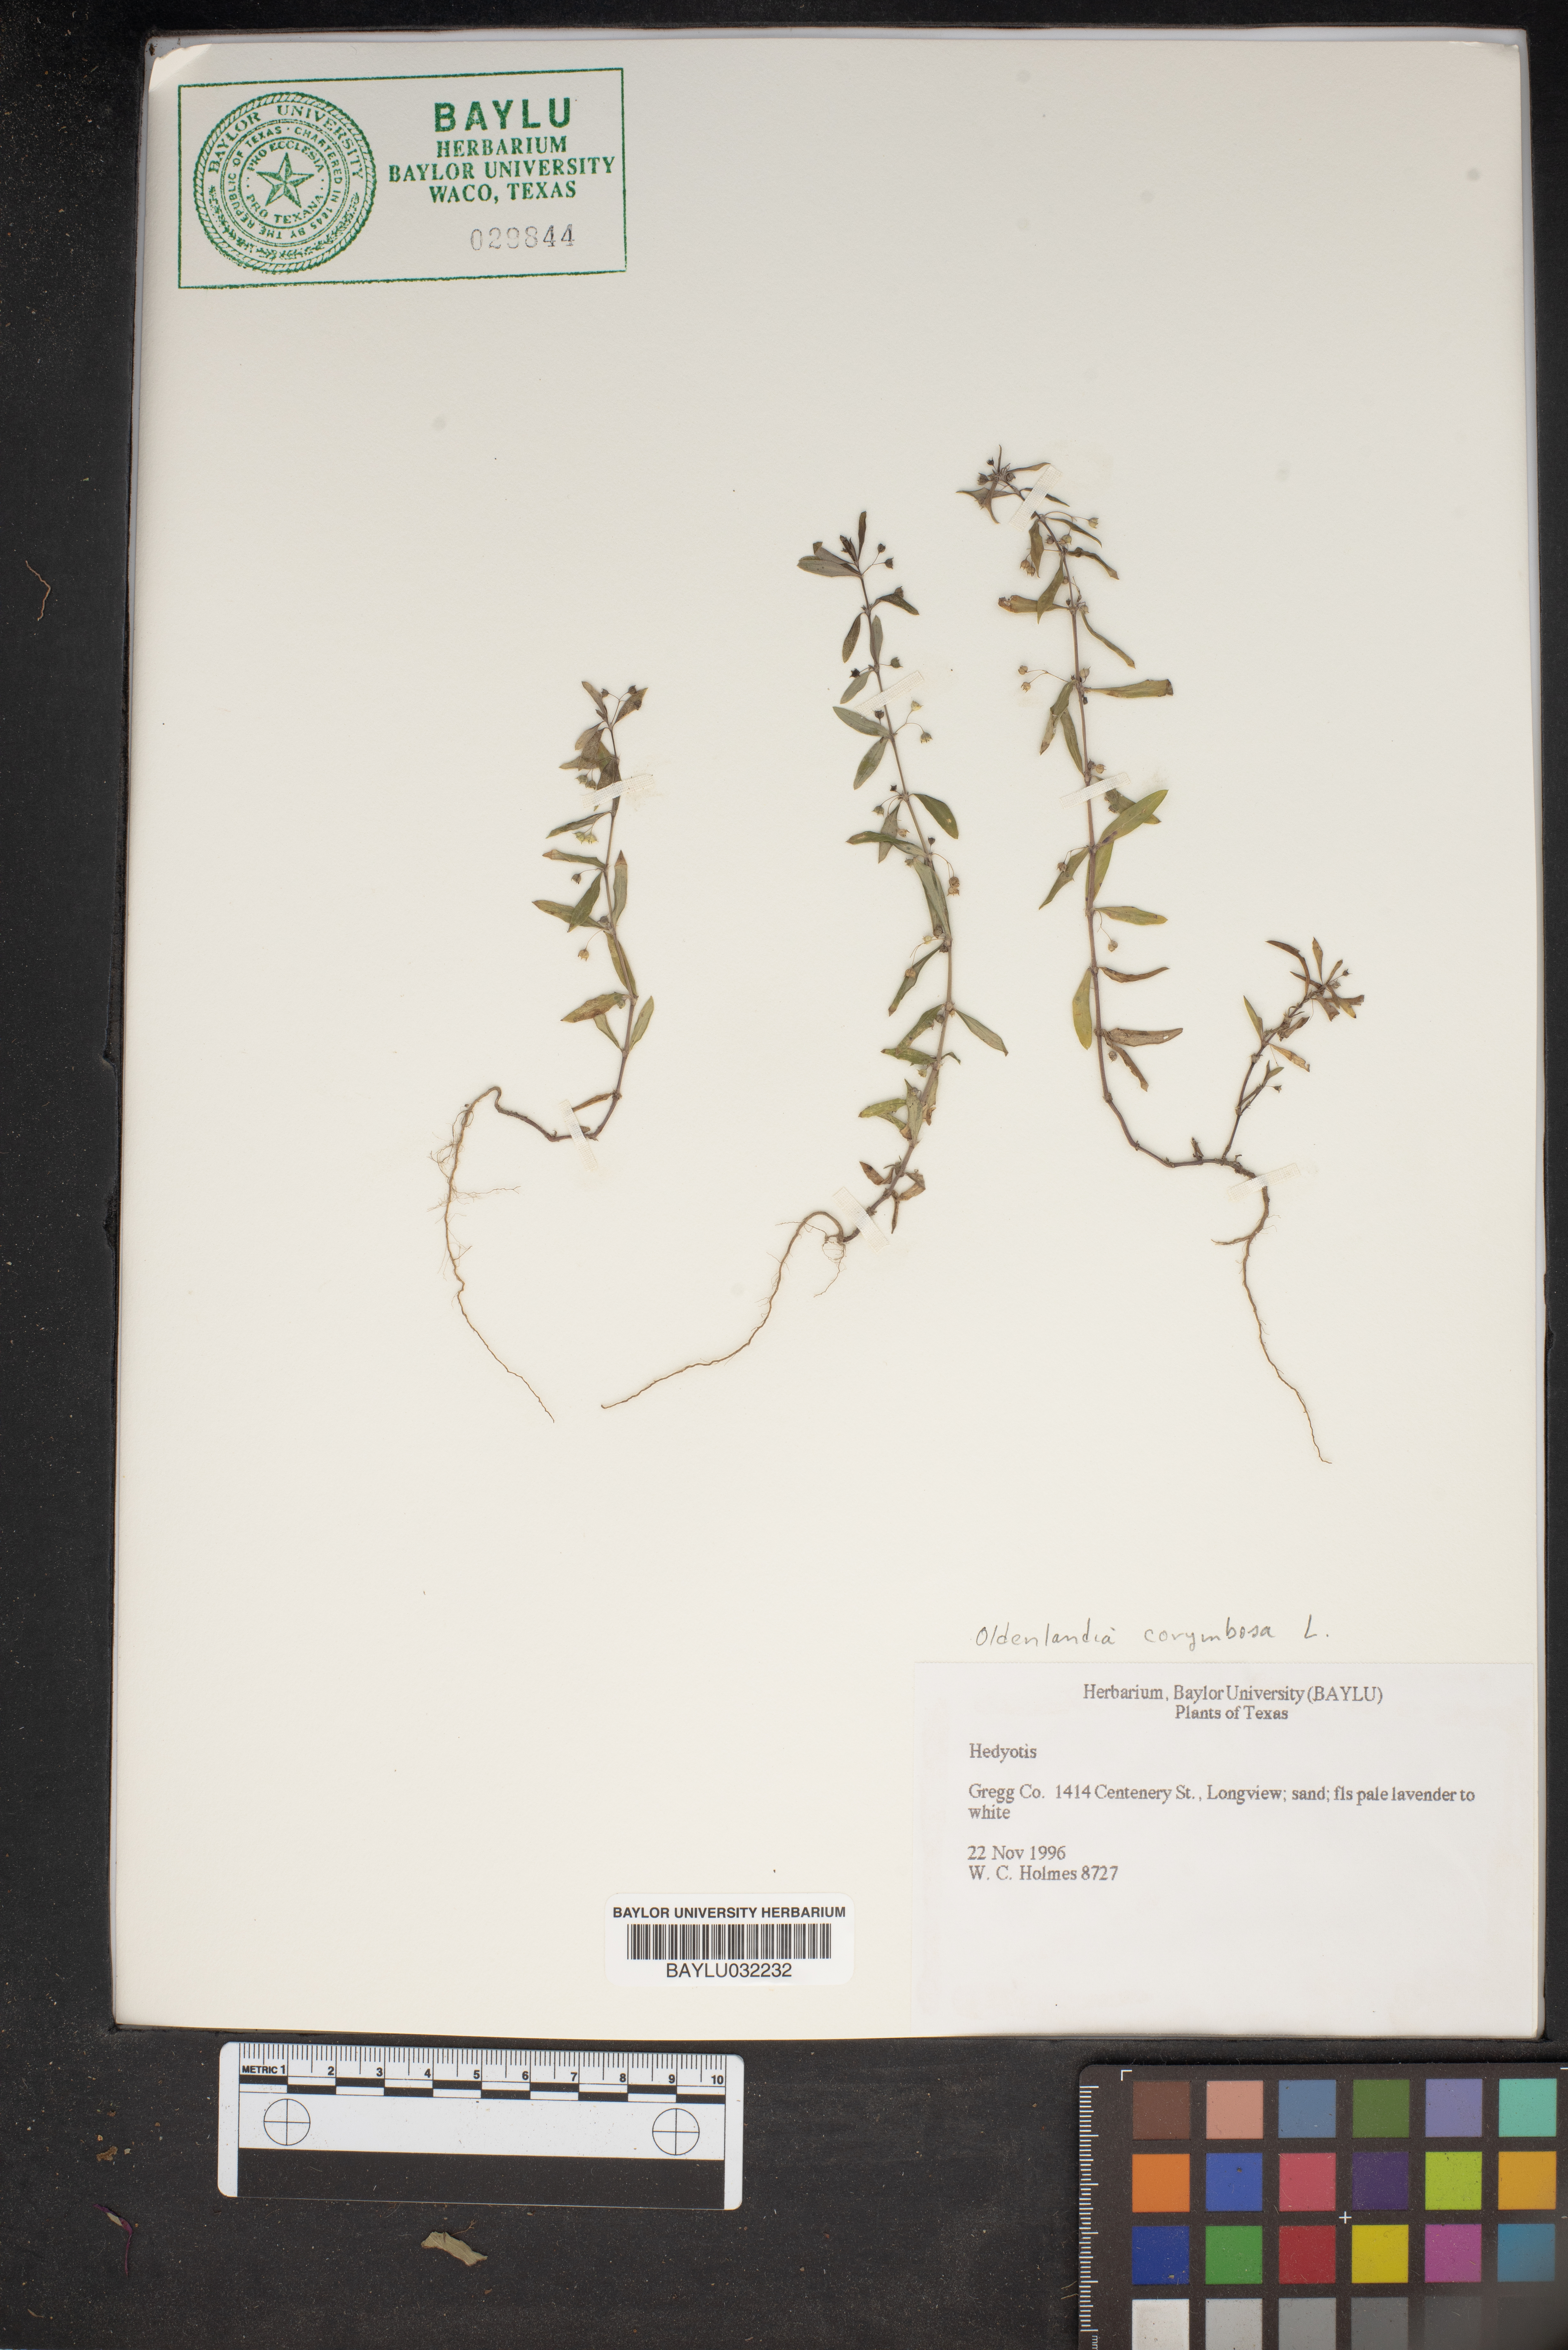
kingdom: Plantae
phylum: Tracheophyta
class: Magnoliopsida
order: Gentianales
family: Rubiaceae
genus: Hedyotis
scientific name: Hedyotis
